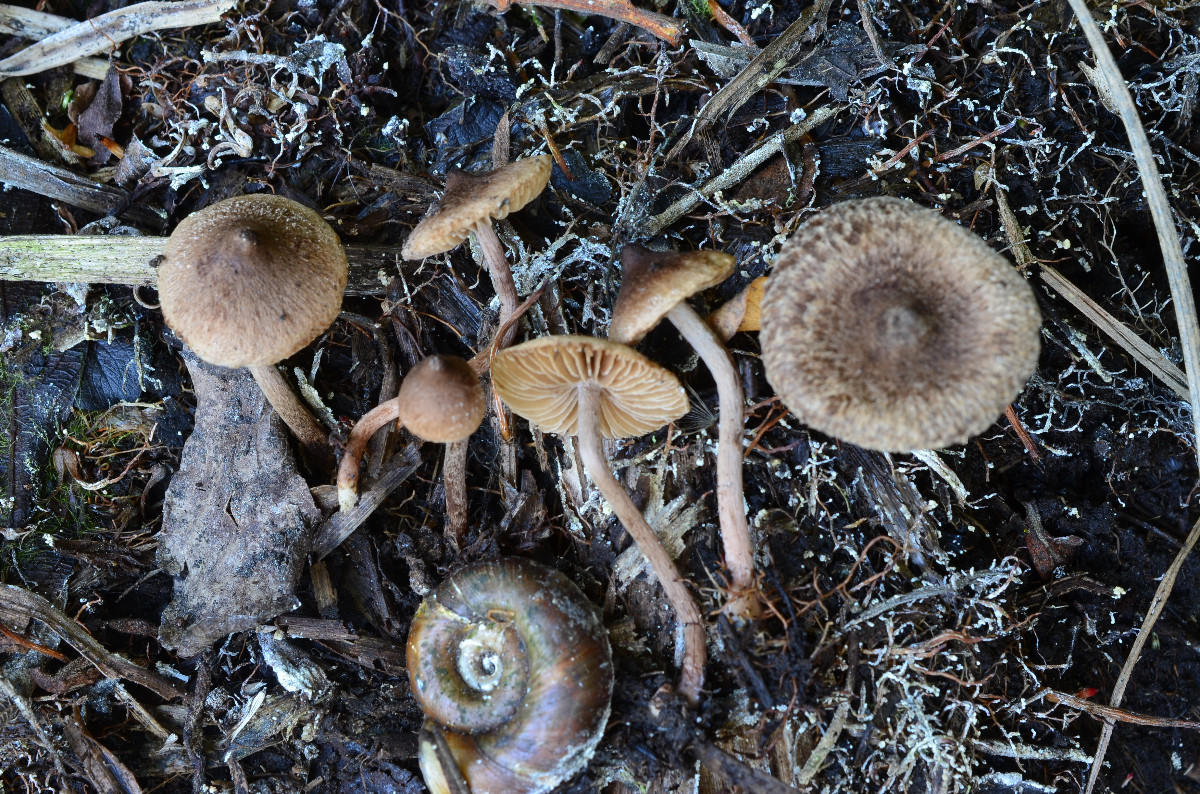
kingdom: Fungi
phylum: Basidiomycota
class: Agaricomycetes
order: Agaricales
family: Inocybaceae
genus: Inocybe
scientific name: Inocybe helobia
